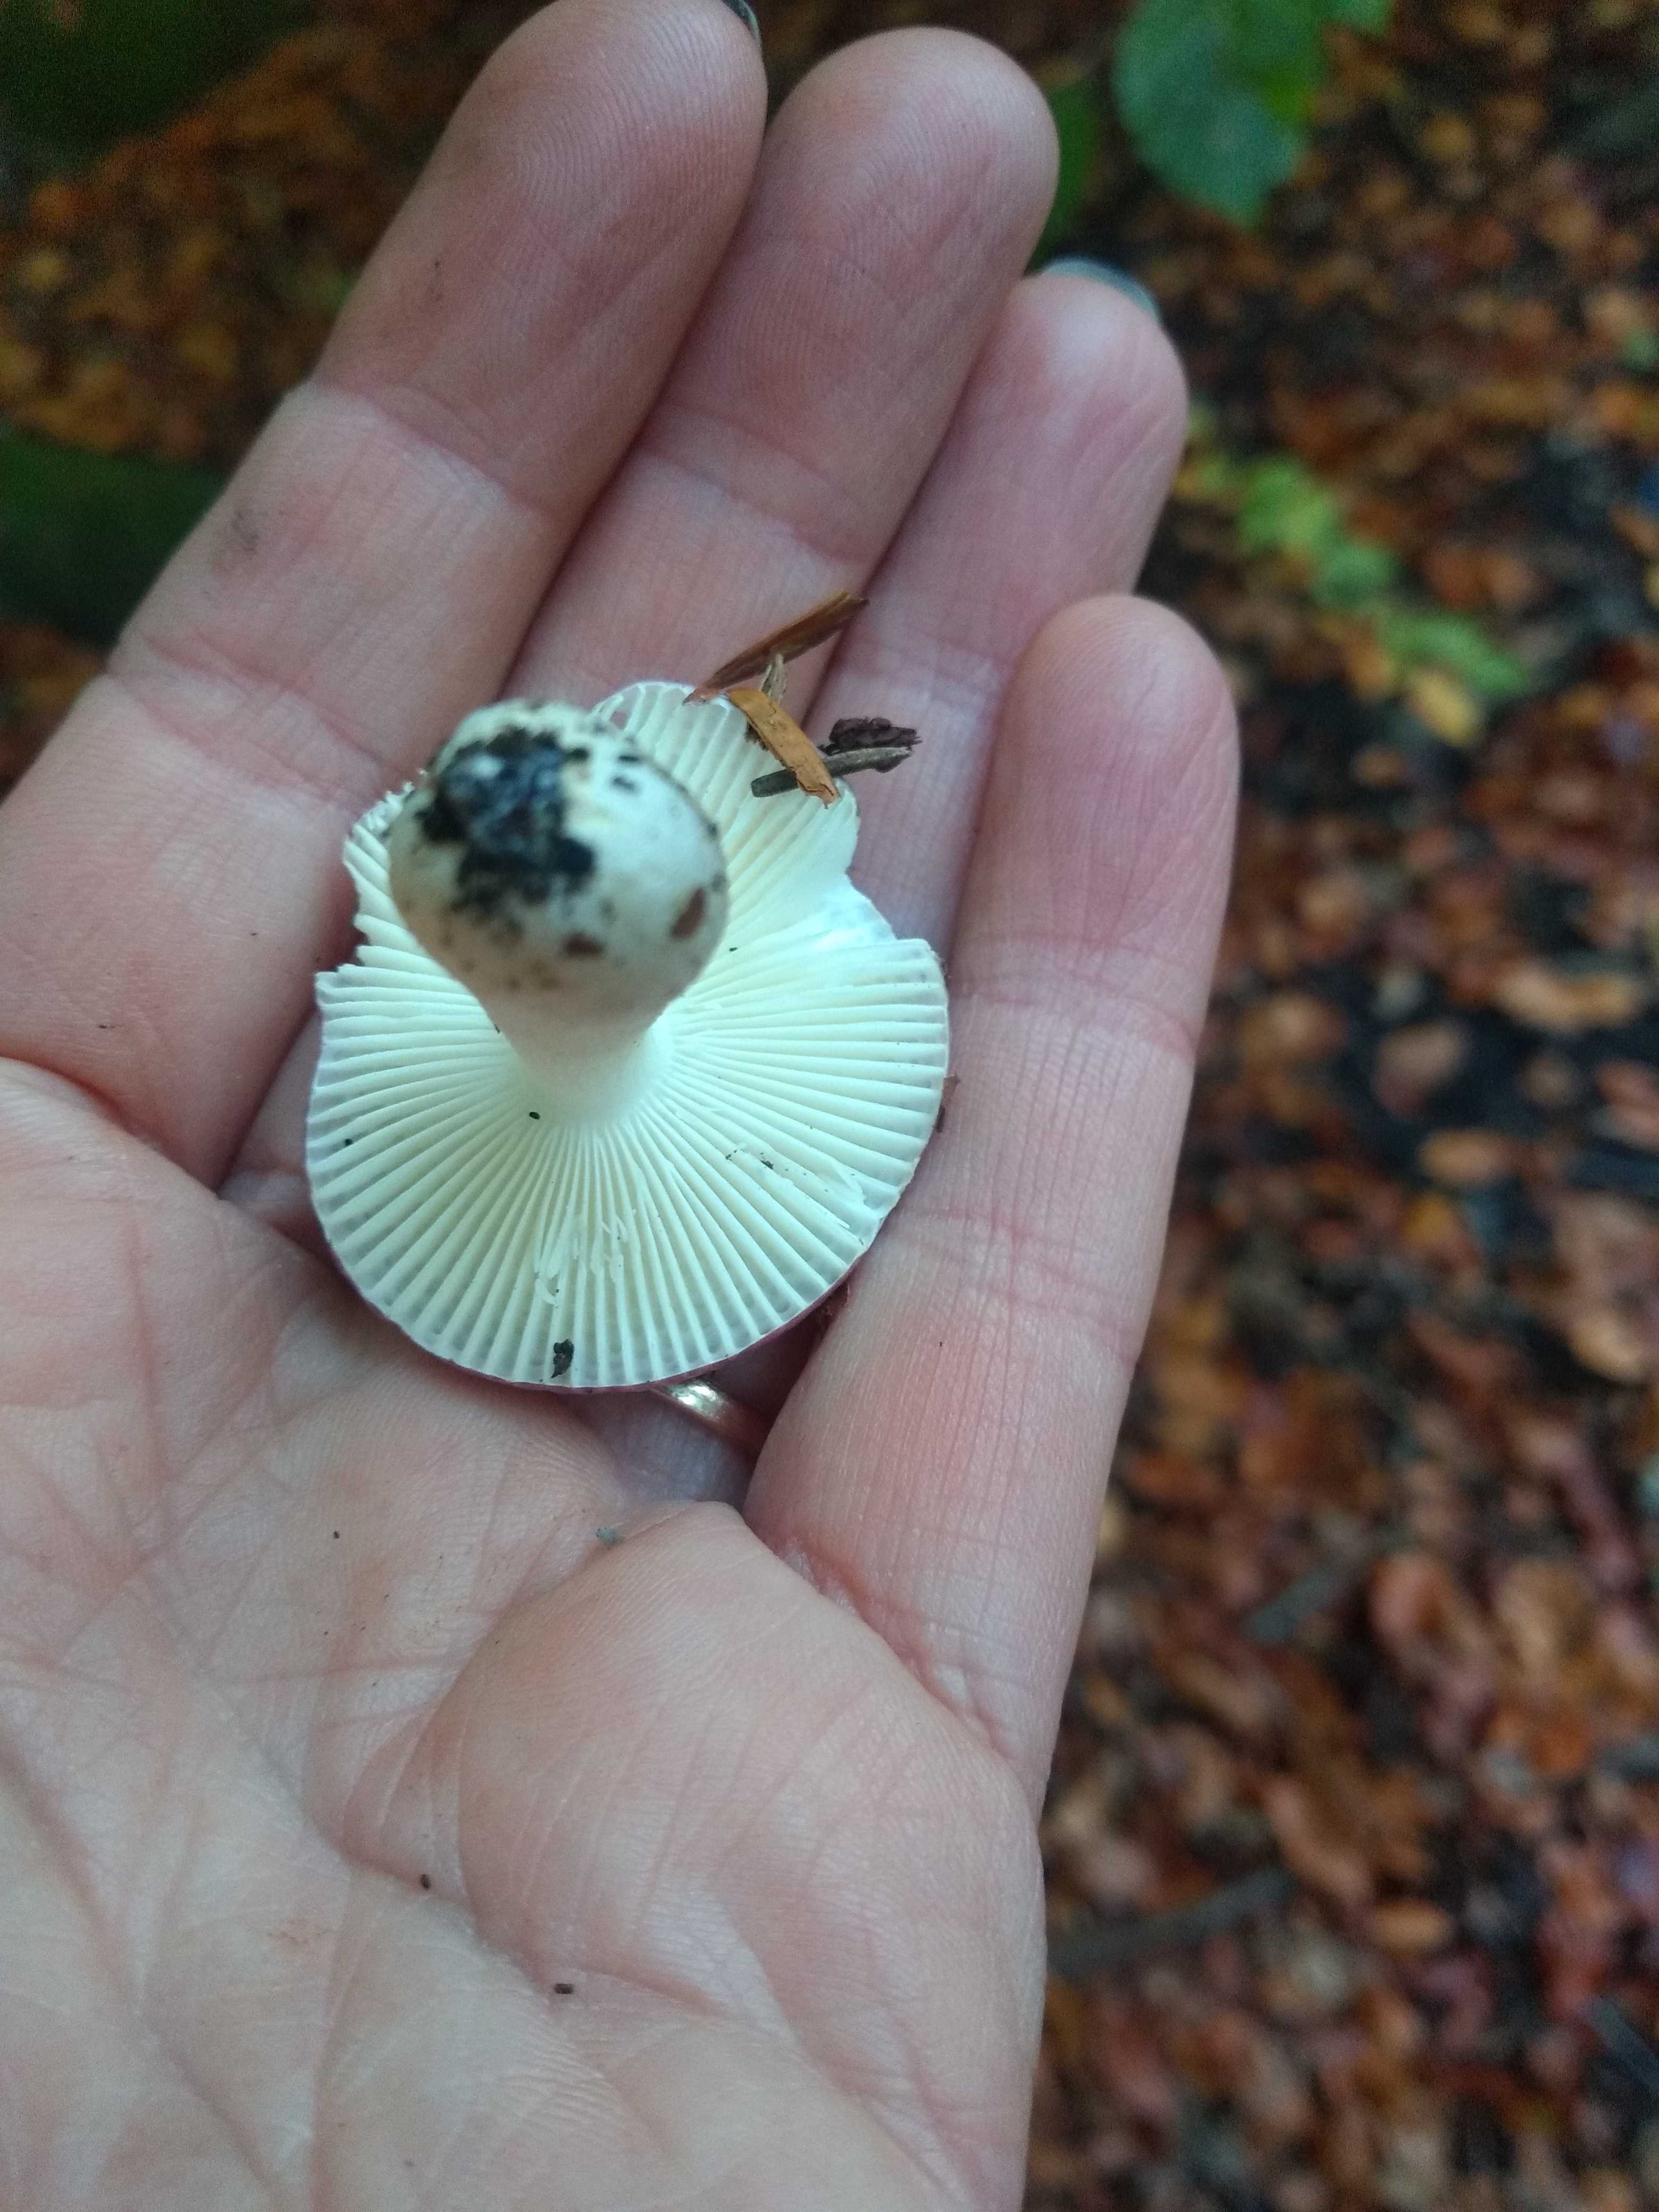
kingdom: Fungi
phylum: Basidiomycota
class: Agaricomycetes
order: Russulales
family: Russulaceae
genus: Russula
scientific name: Russula
